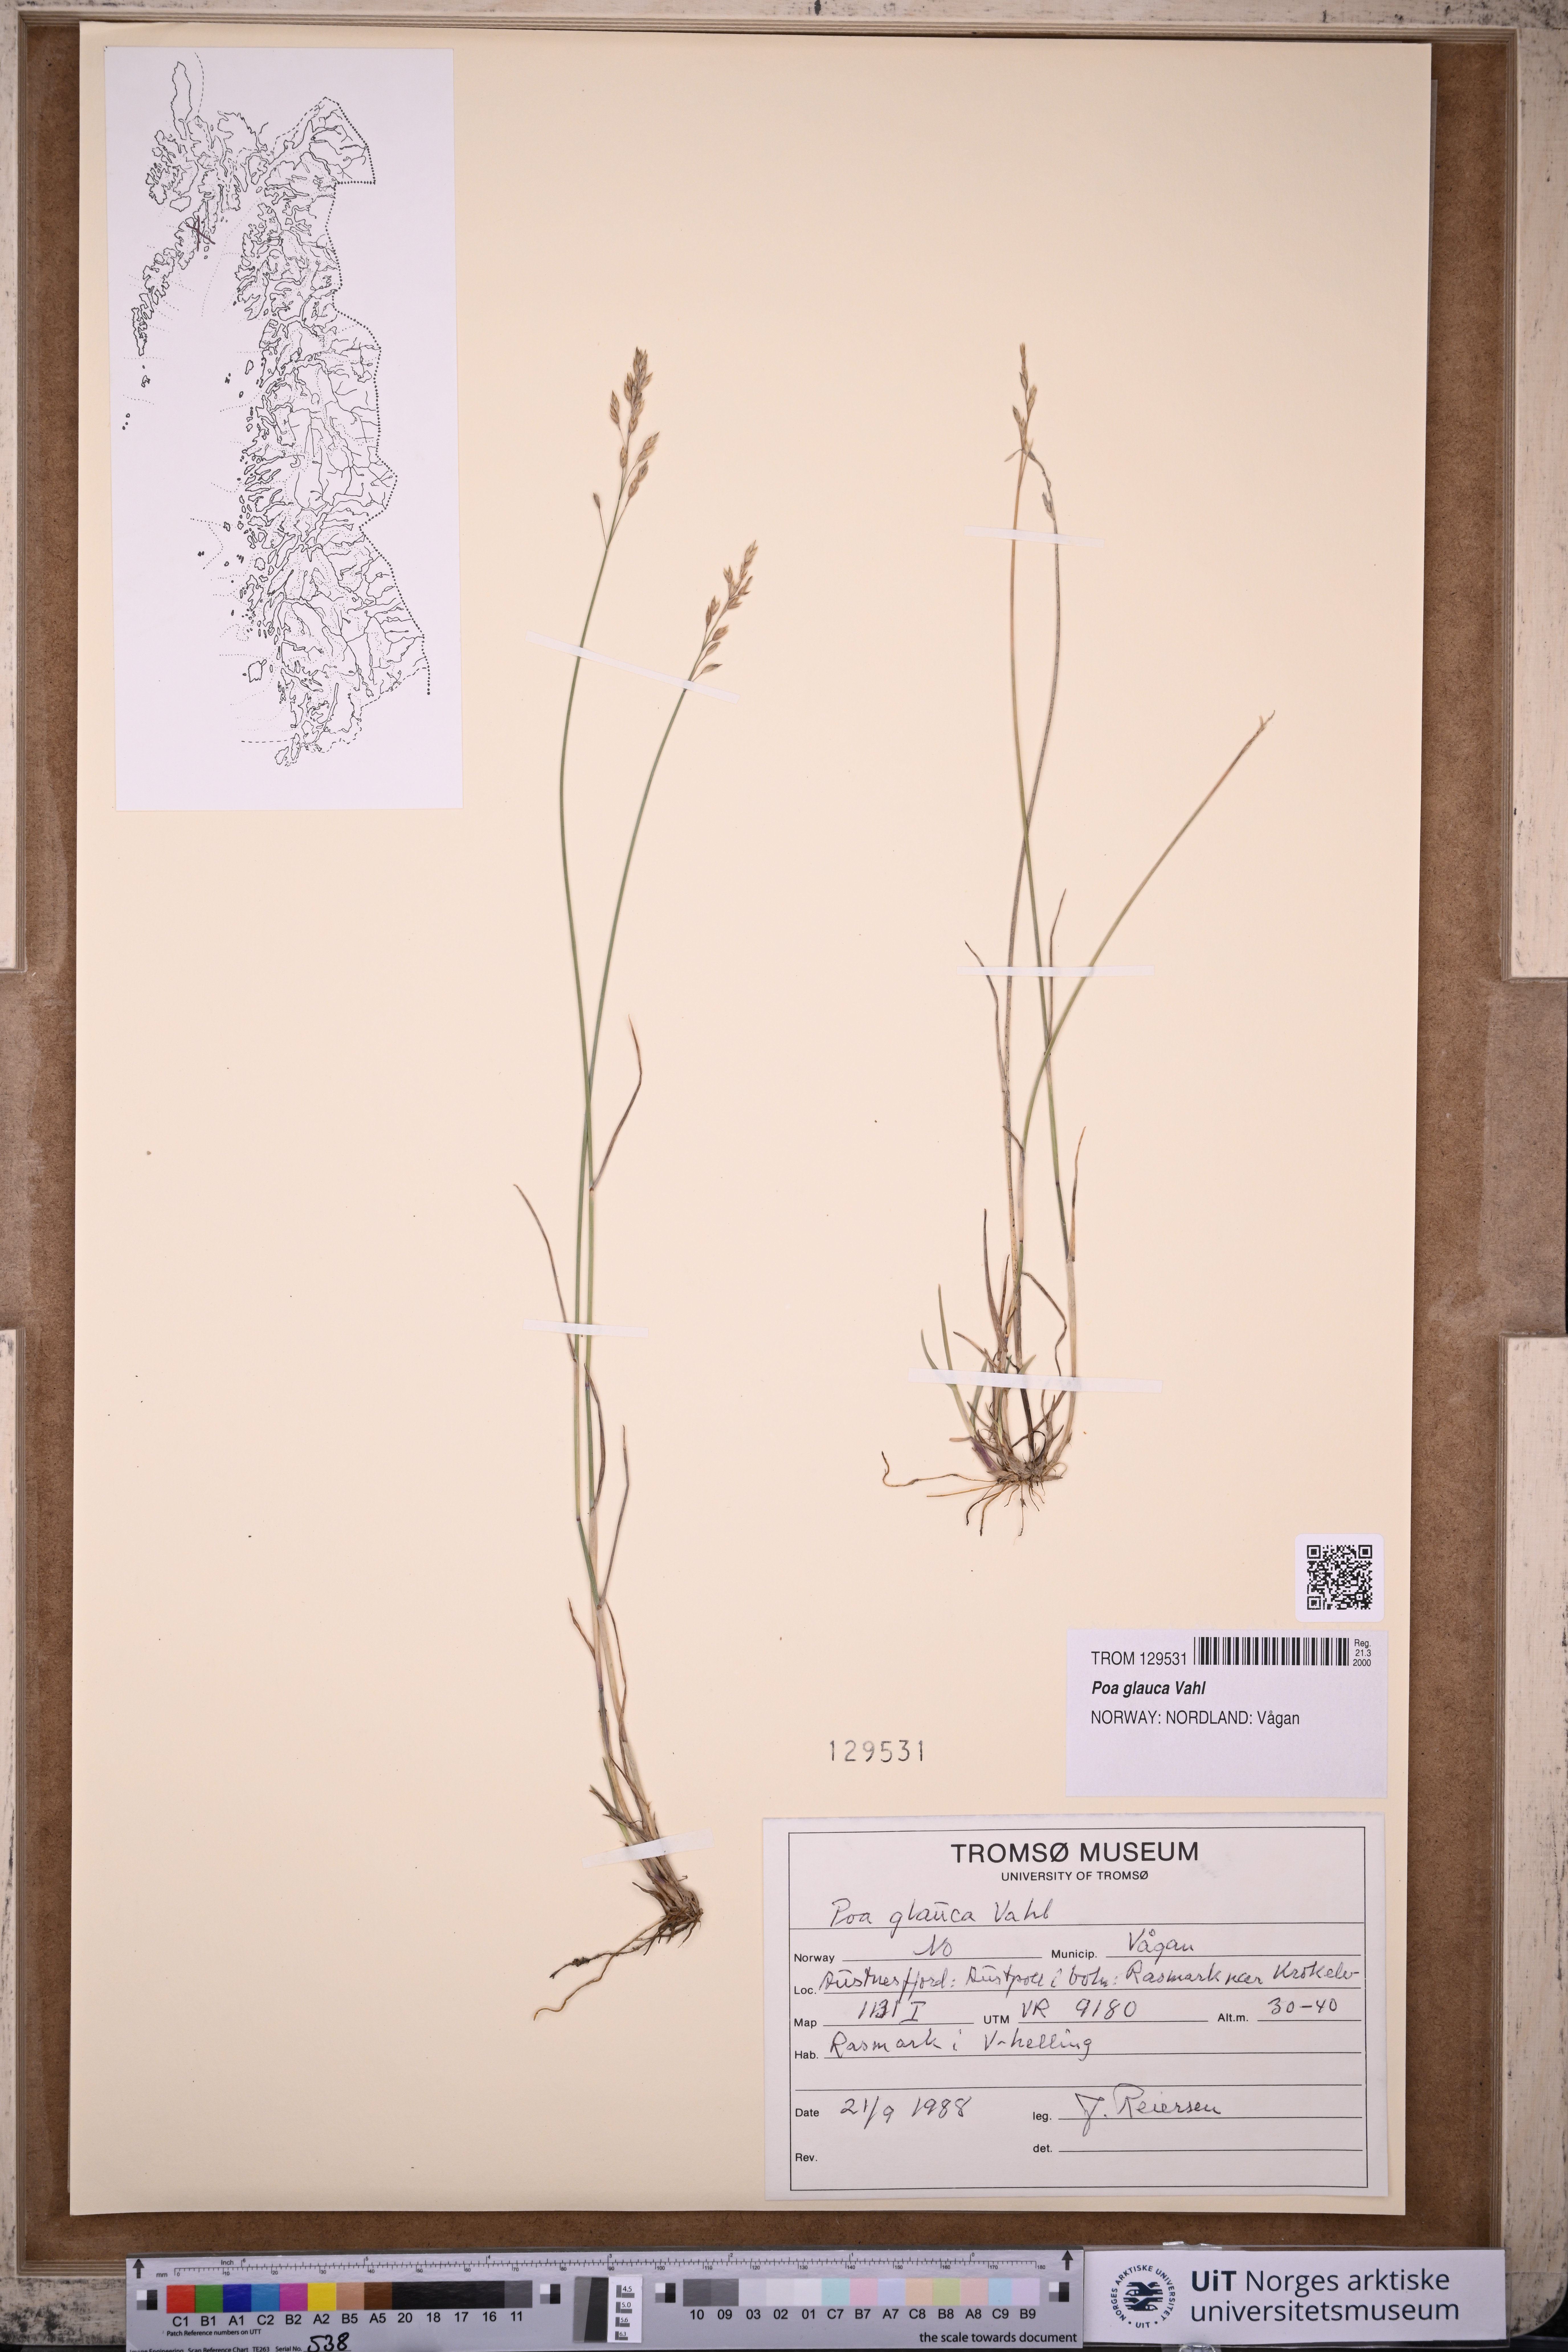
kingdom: Plantae
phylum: Tracheophyta
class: Liliopsida
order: Poales
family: Poaceae
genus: Poa
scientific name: Poa glauca
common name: Glaucous bluegrass
